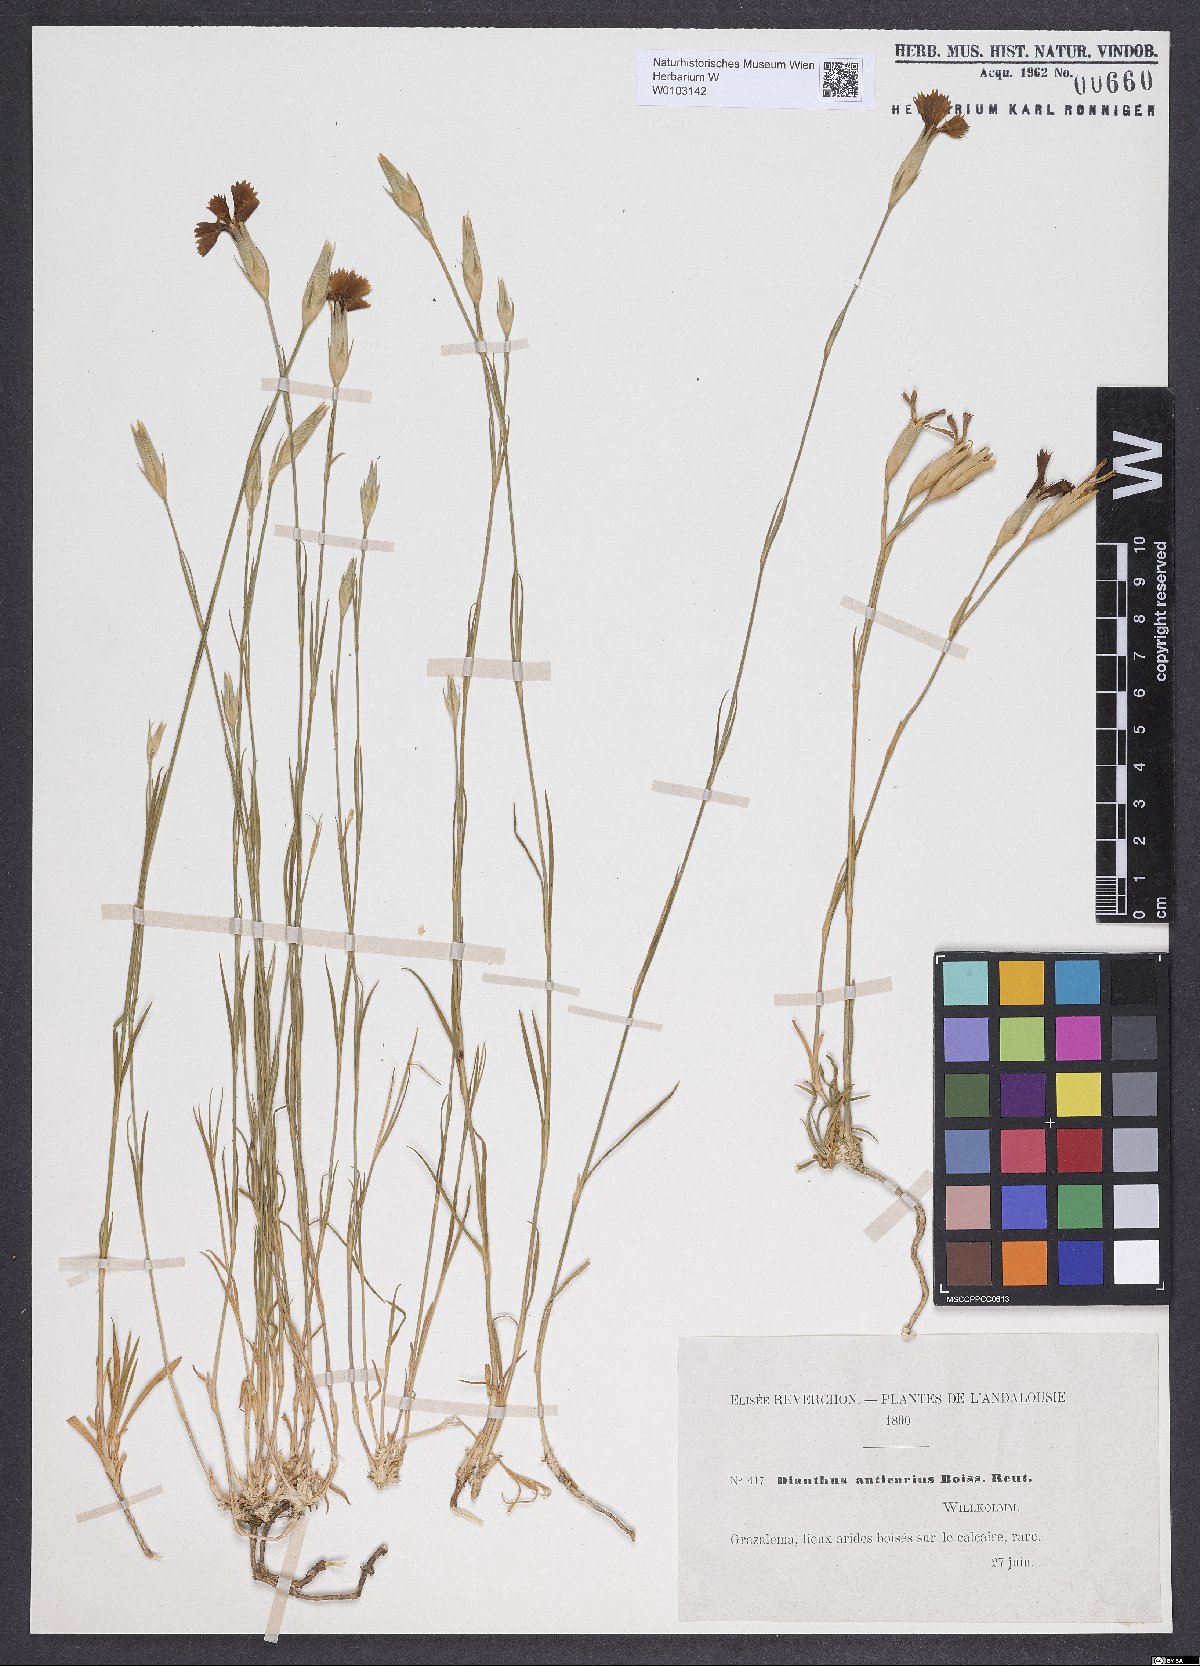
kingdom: Plantae
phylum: Tracheophyta
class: Magnoliopsida
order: Caryophyllales
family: Caryophyllaceae
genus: Dianthus
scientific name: Dianthus anticarius
